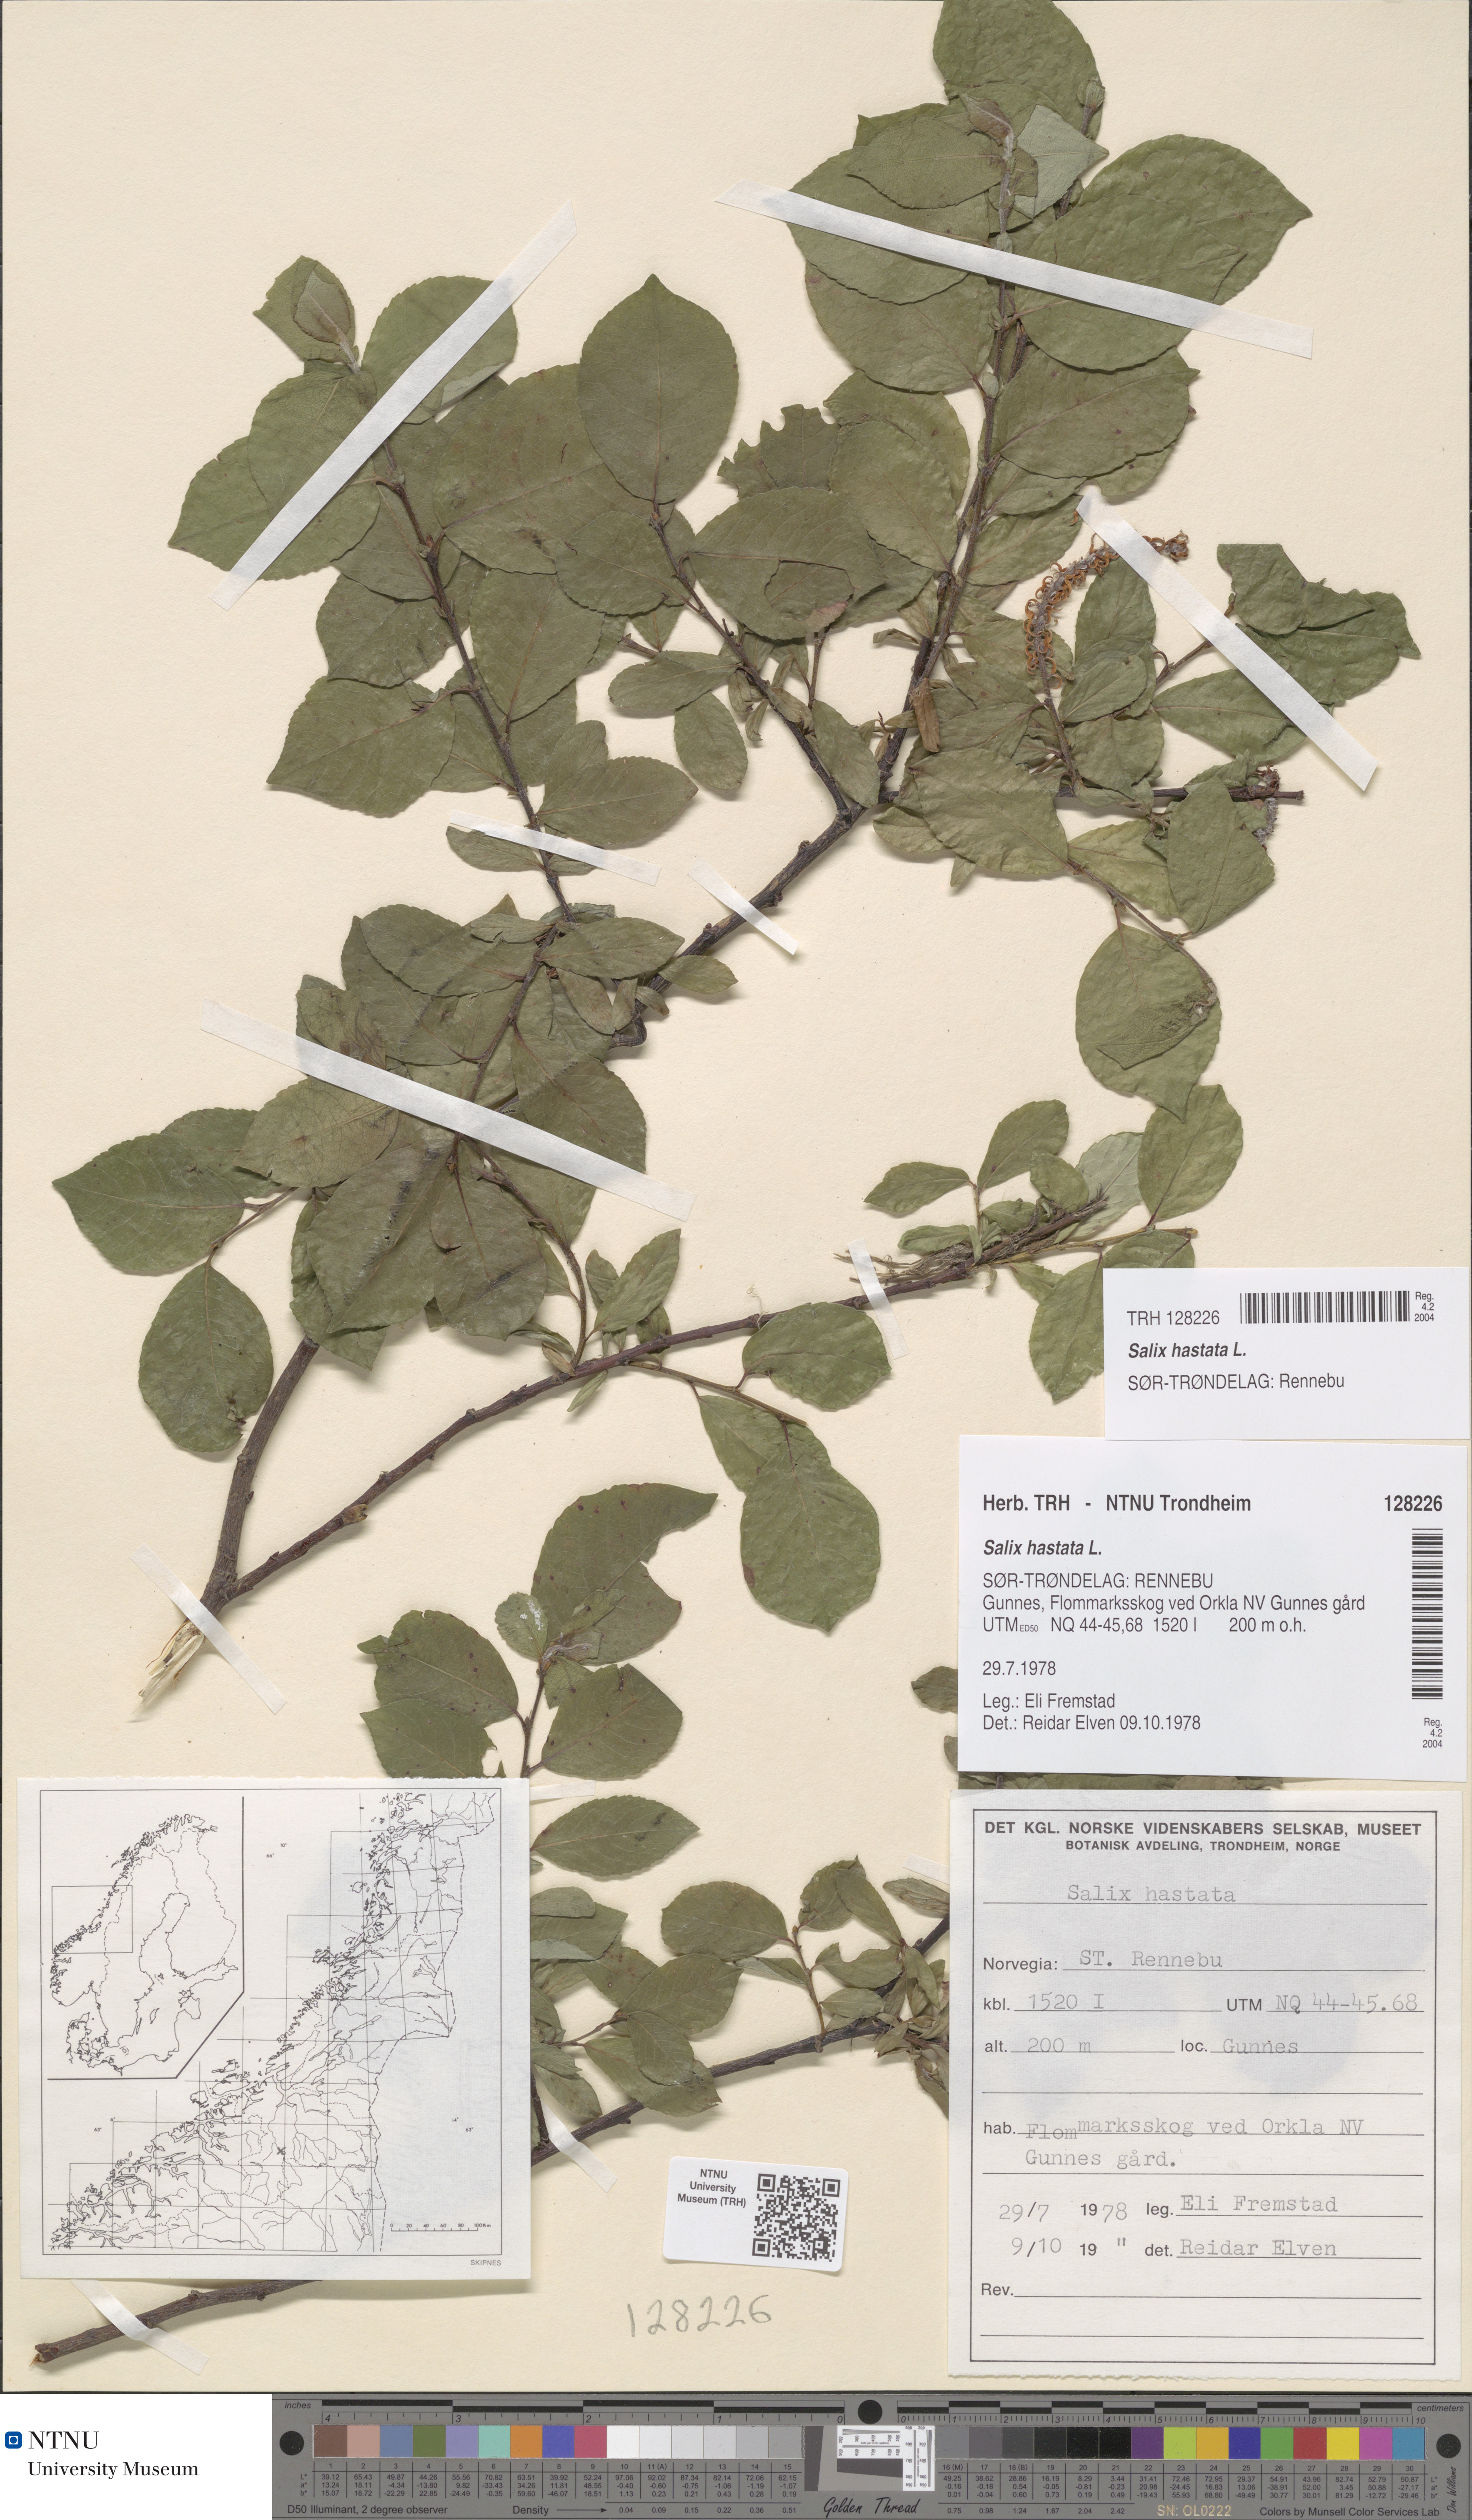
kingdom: Plantae
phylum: Tracheophyta
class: Magnoliopsida
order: Malpighiales
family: Salicaceae
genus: Salix
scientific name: Salix hastata
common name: Halberd willow
